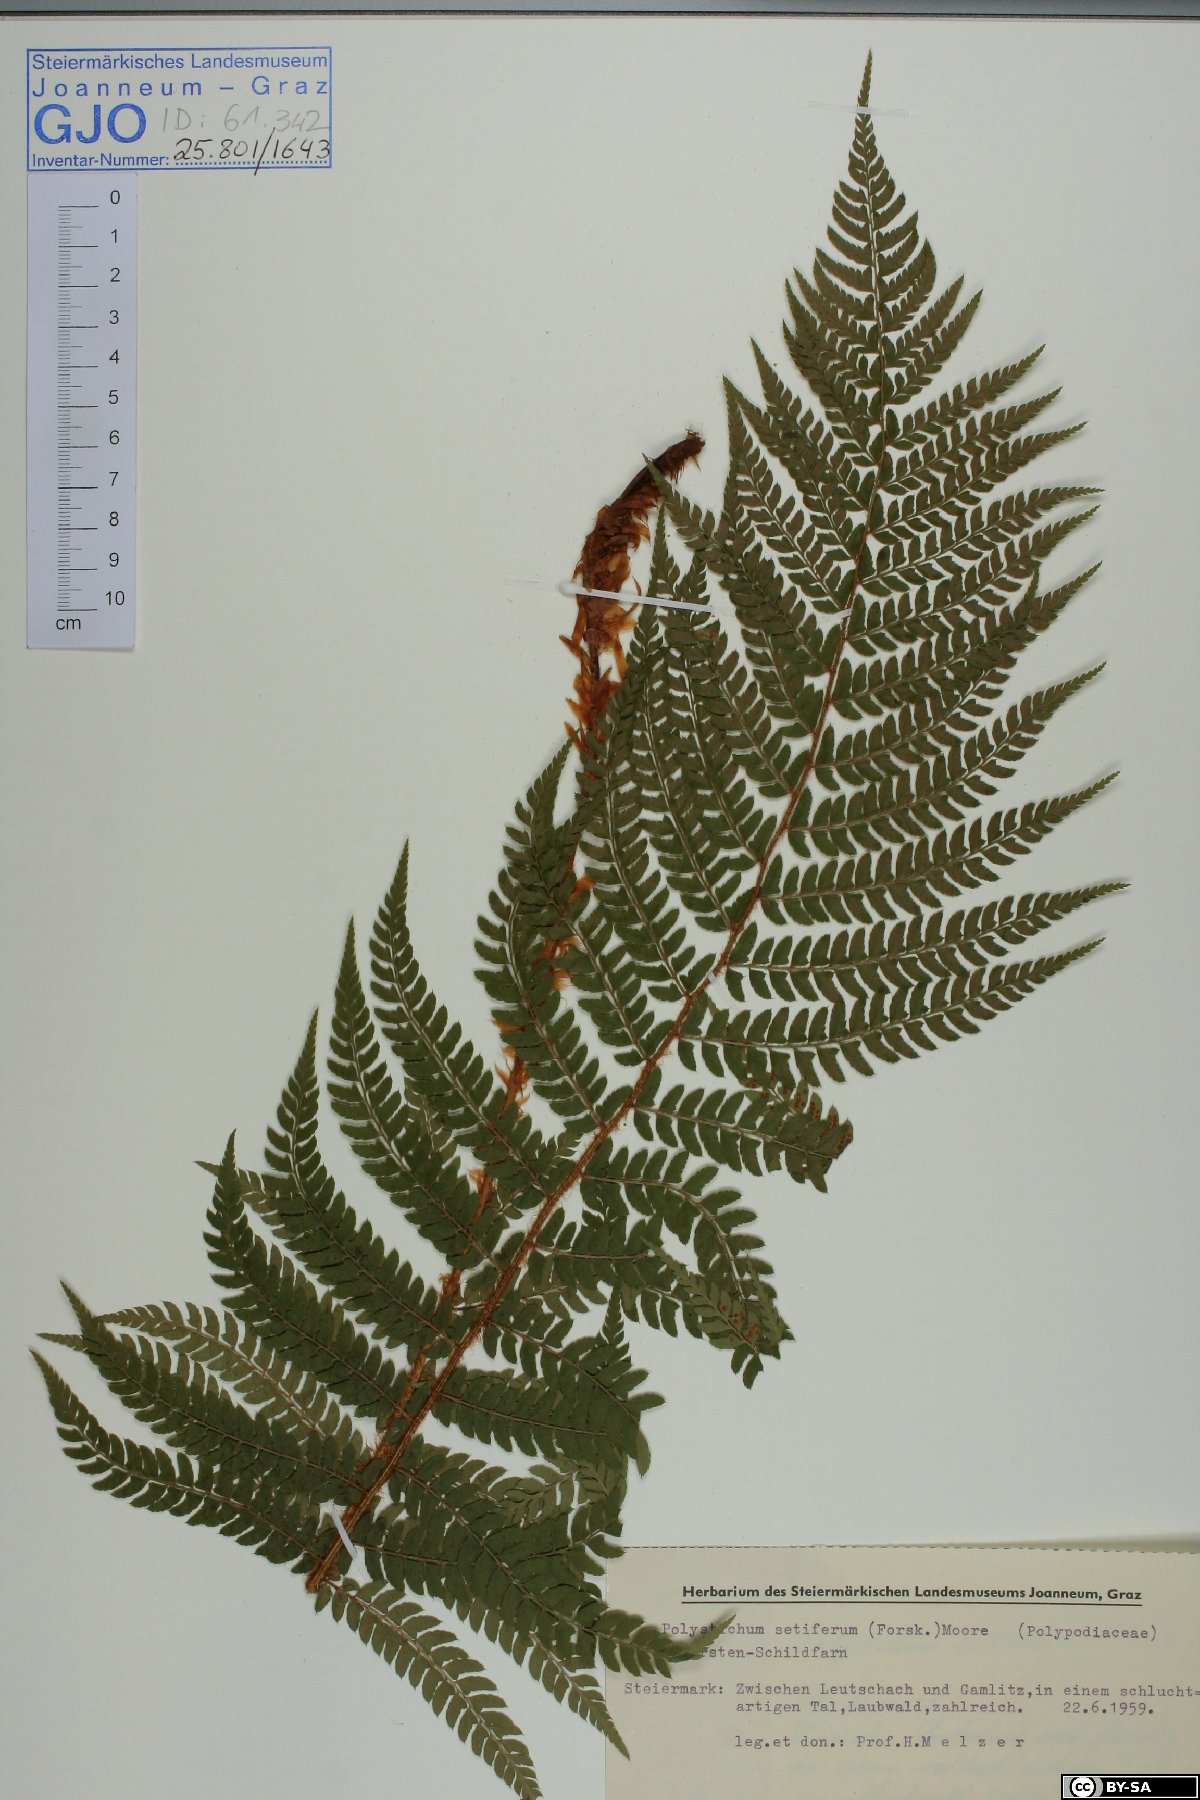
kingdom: Plantae
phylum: Tracheophyta
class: Polypodiopsida
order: Polypodiales
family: Dryopteridaceae
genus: Polystichum
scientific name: Polystichum setiferum
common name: Soft shield-fern
